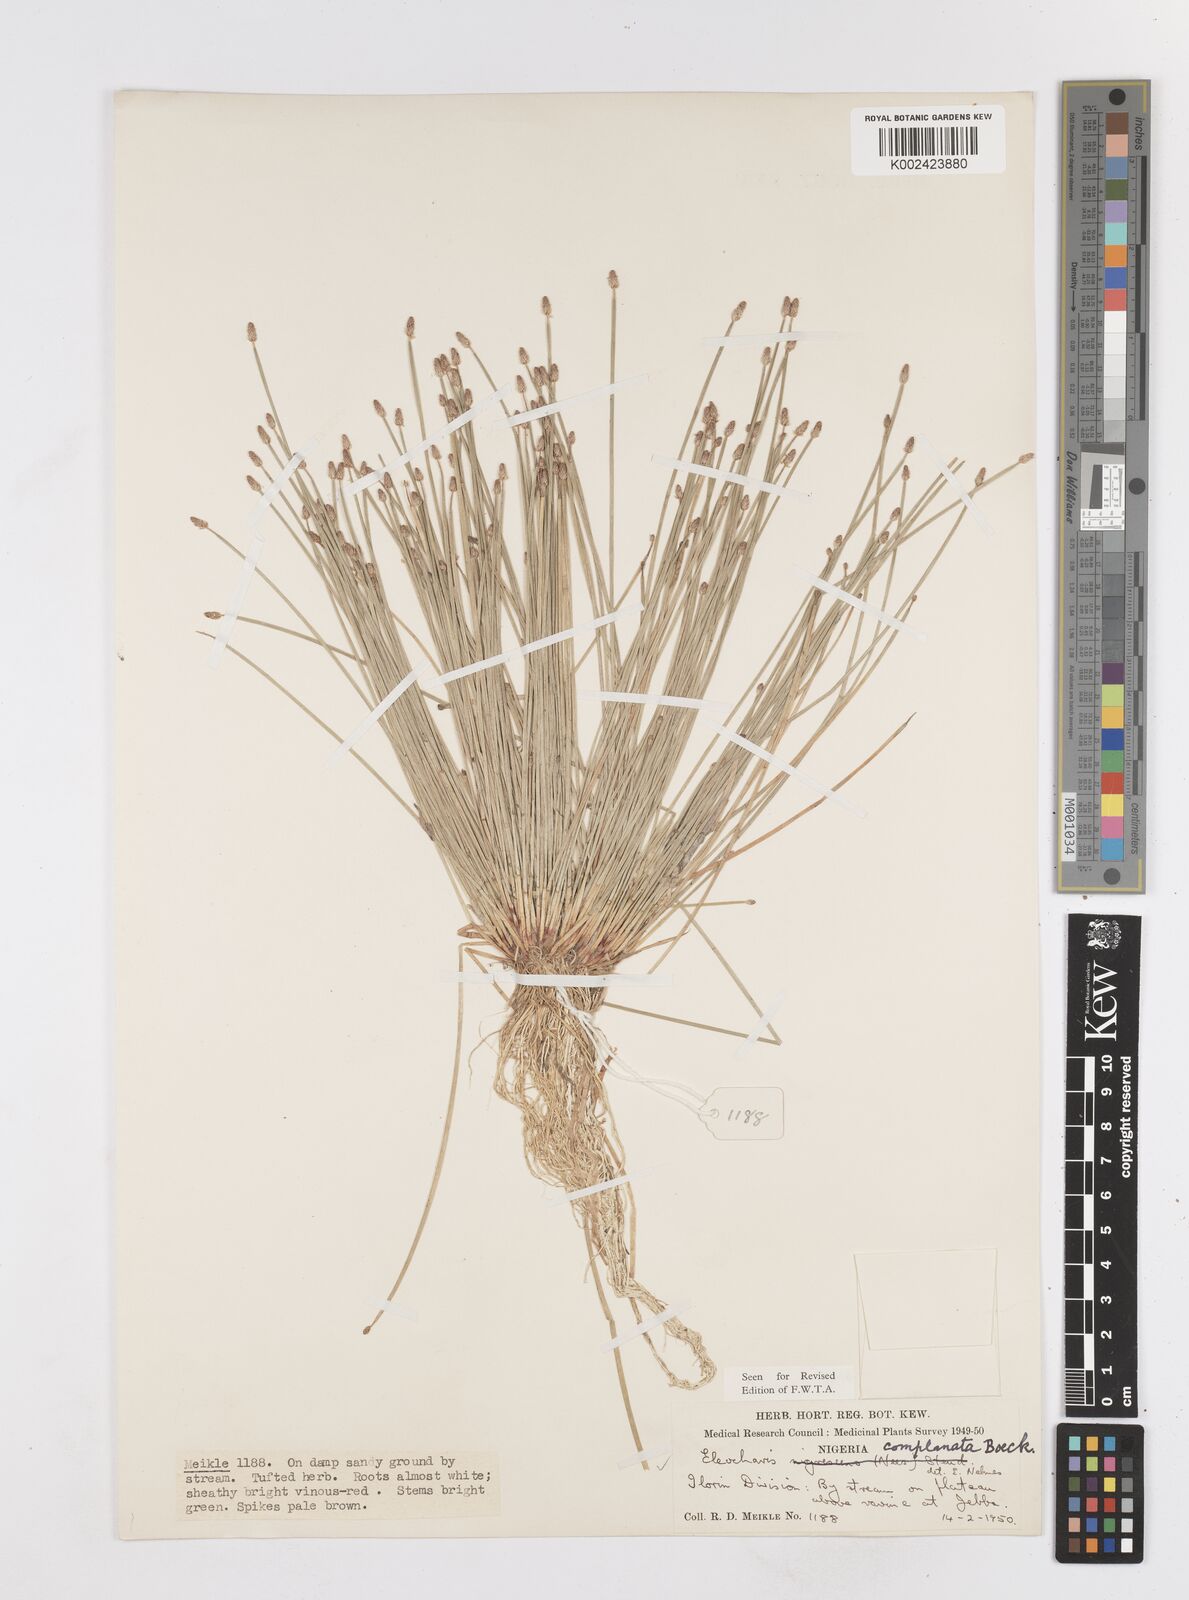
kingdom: Plantae
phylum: Tracheophyta
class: Liliopsida
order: Poales
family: Cyperaceae
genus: Eleocharis
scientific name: Eleocharis complanata
